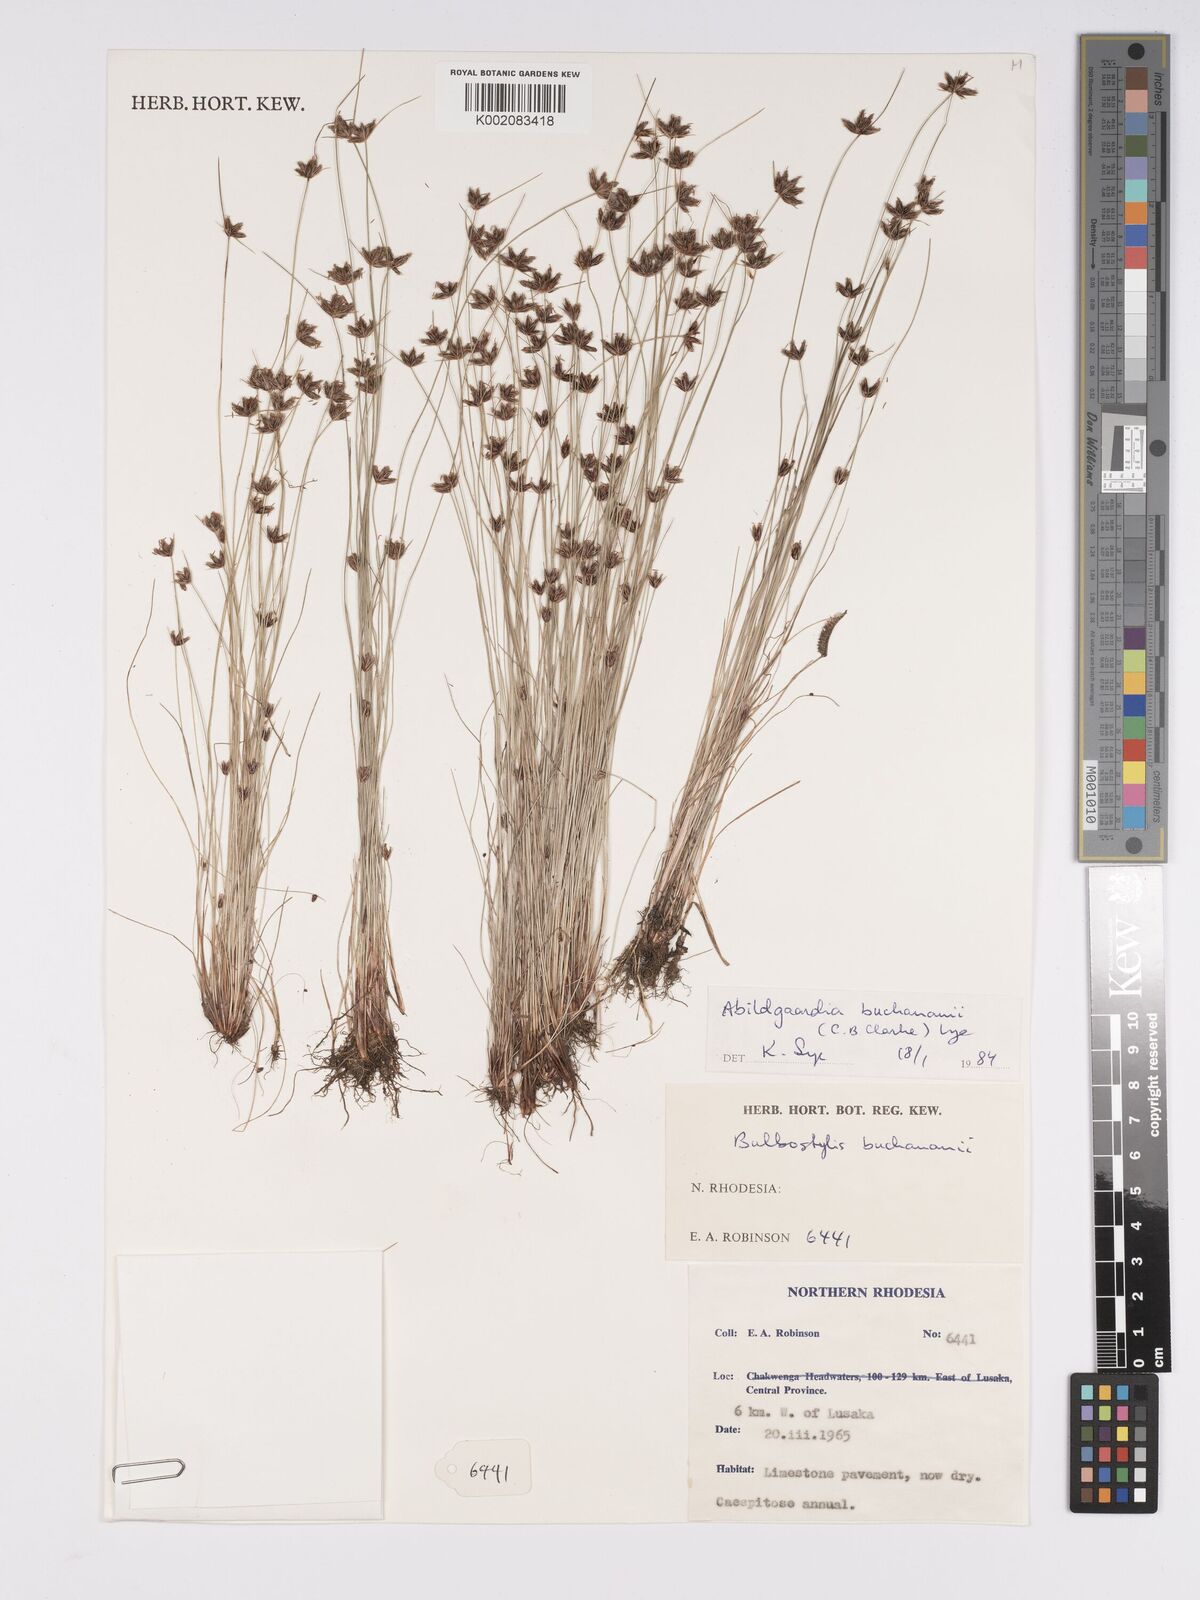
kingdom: Plantae
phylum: Tracheophyta
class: Liliopsida
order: Poales
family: Cyperaceae
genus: Bulbostylis
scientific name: Bulbostylis buchananii
